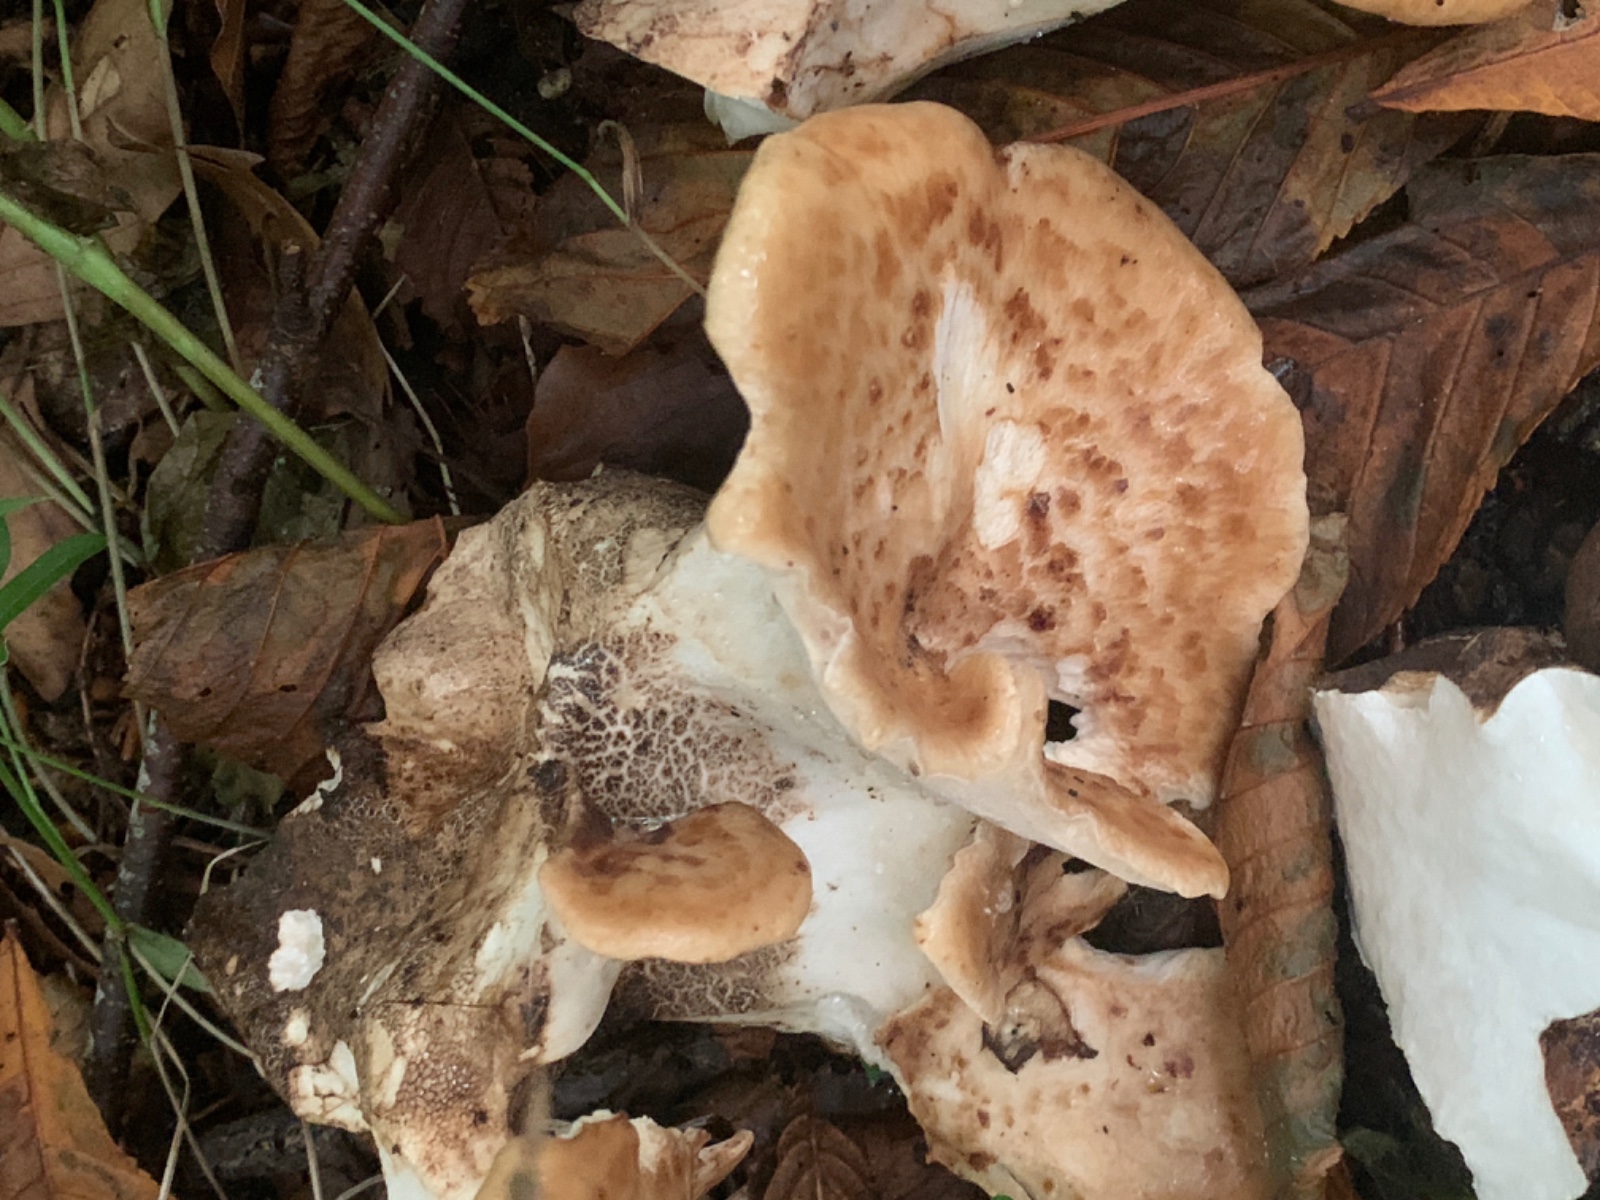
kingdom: Fungi
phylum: Basidiomycota
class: Agaricomycetes
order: Polyporales
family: Polyporaceae
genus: Cerioporus
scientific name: Cerioporus squamosus
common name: skællet stilkporesvamp
